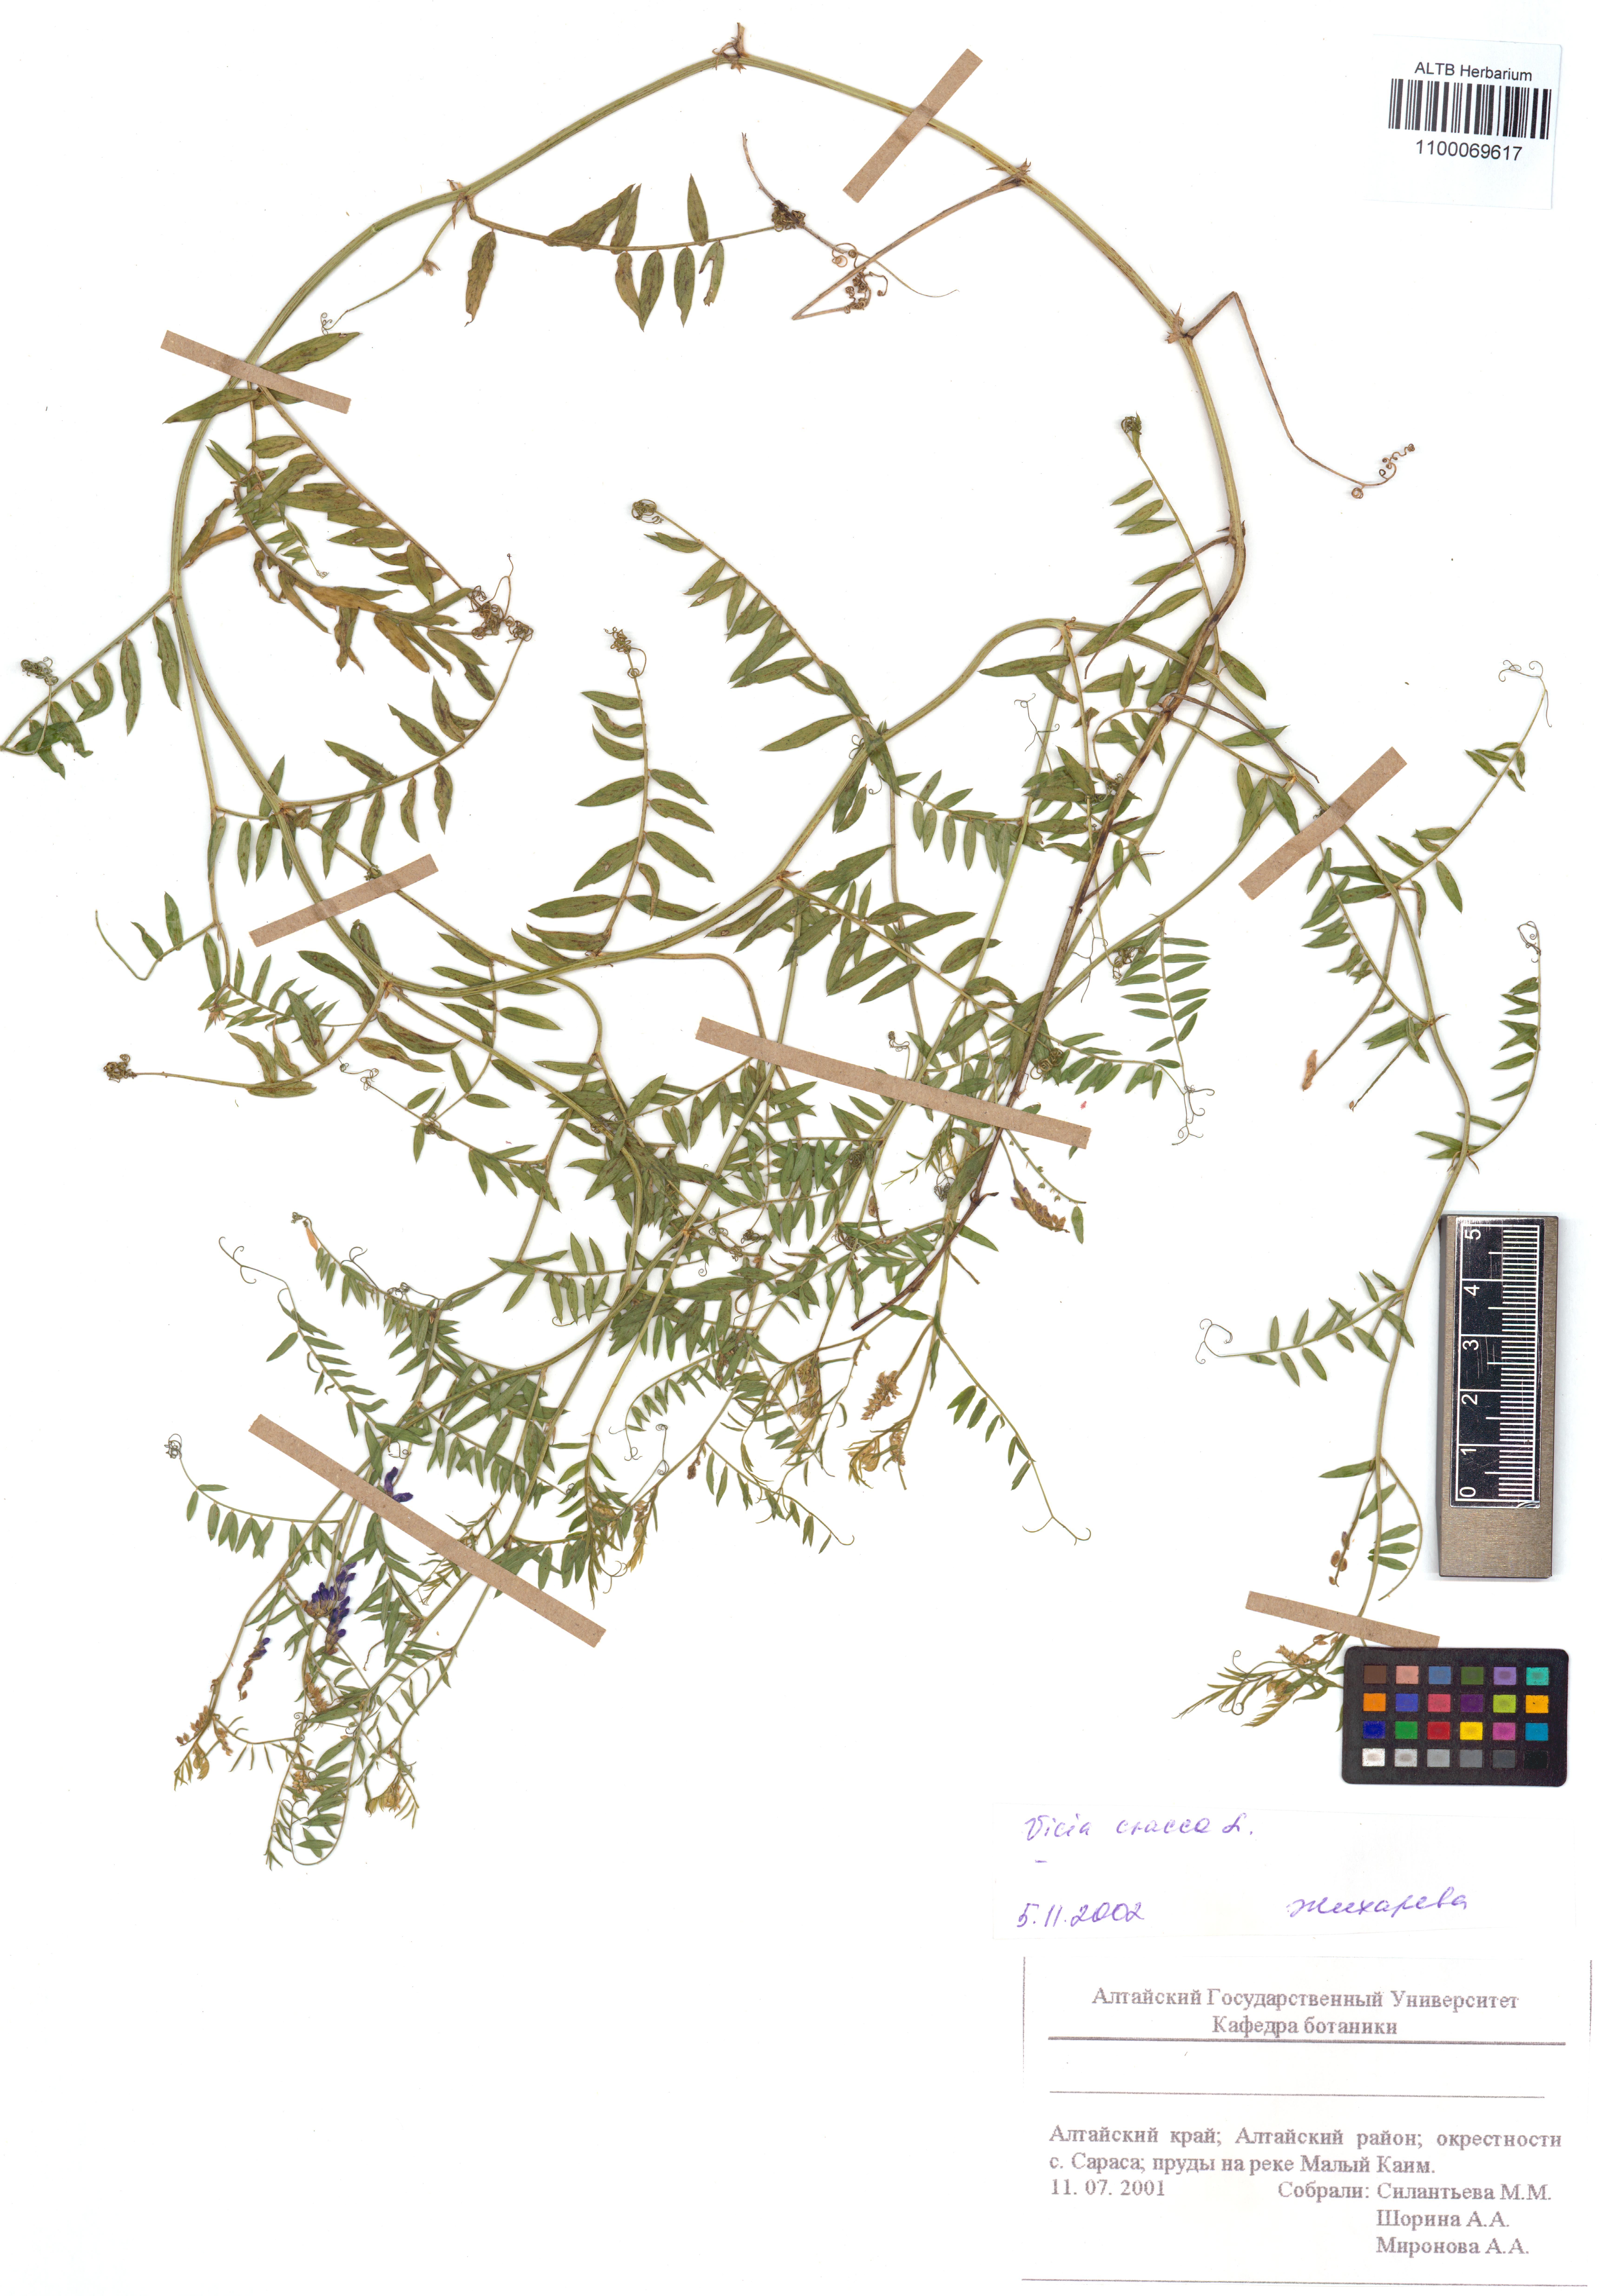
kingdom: Plantae
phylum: Tracheophyta
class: Magnoliopsida
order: Fabales
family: Fabaceae
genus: Vicia
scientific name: Vicia cracca
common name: Bird vetch
